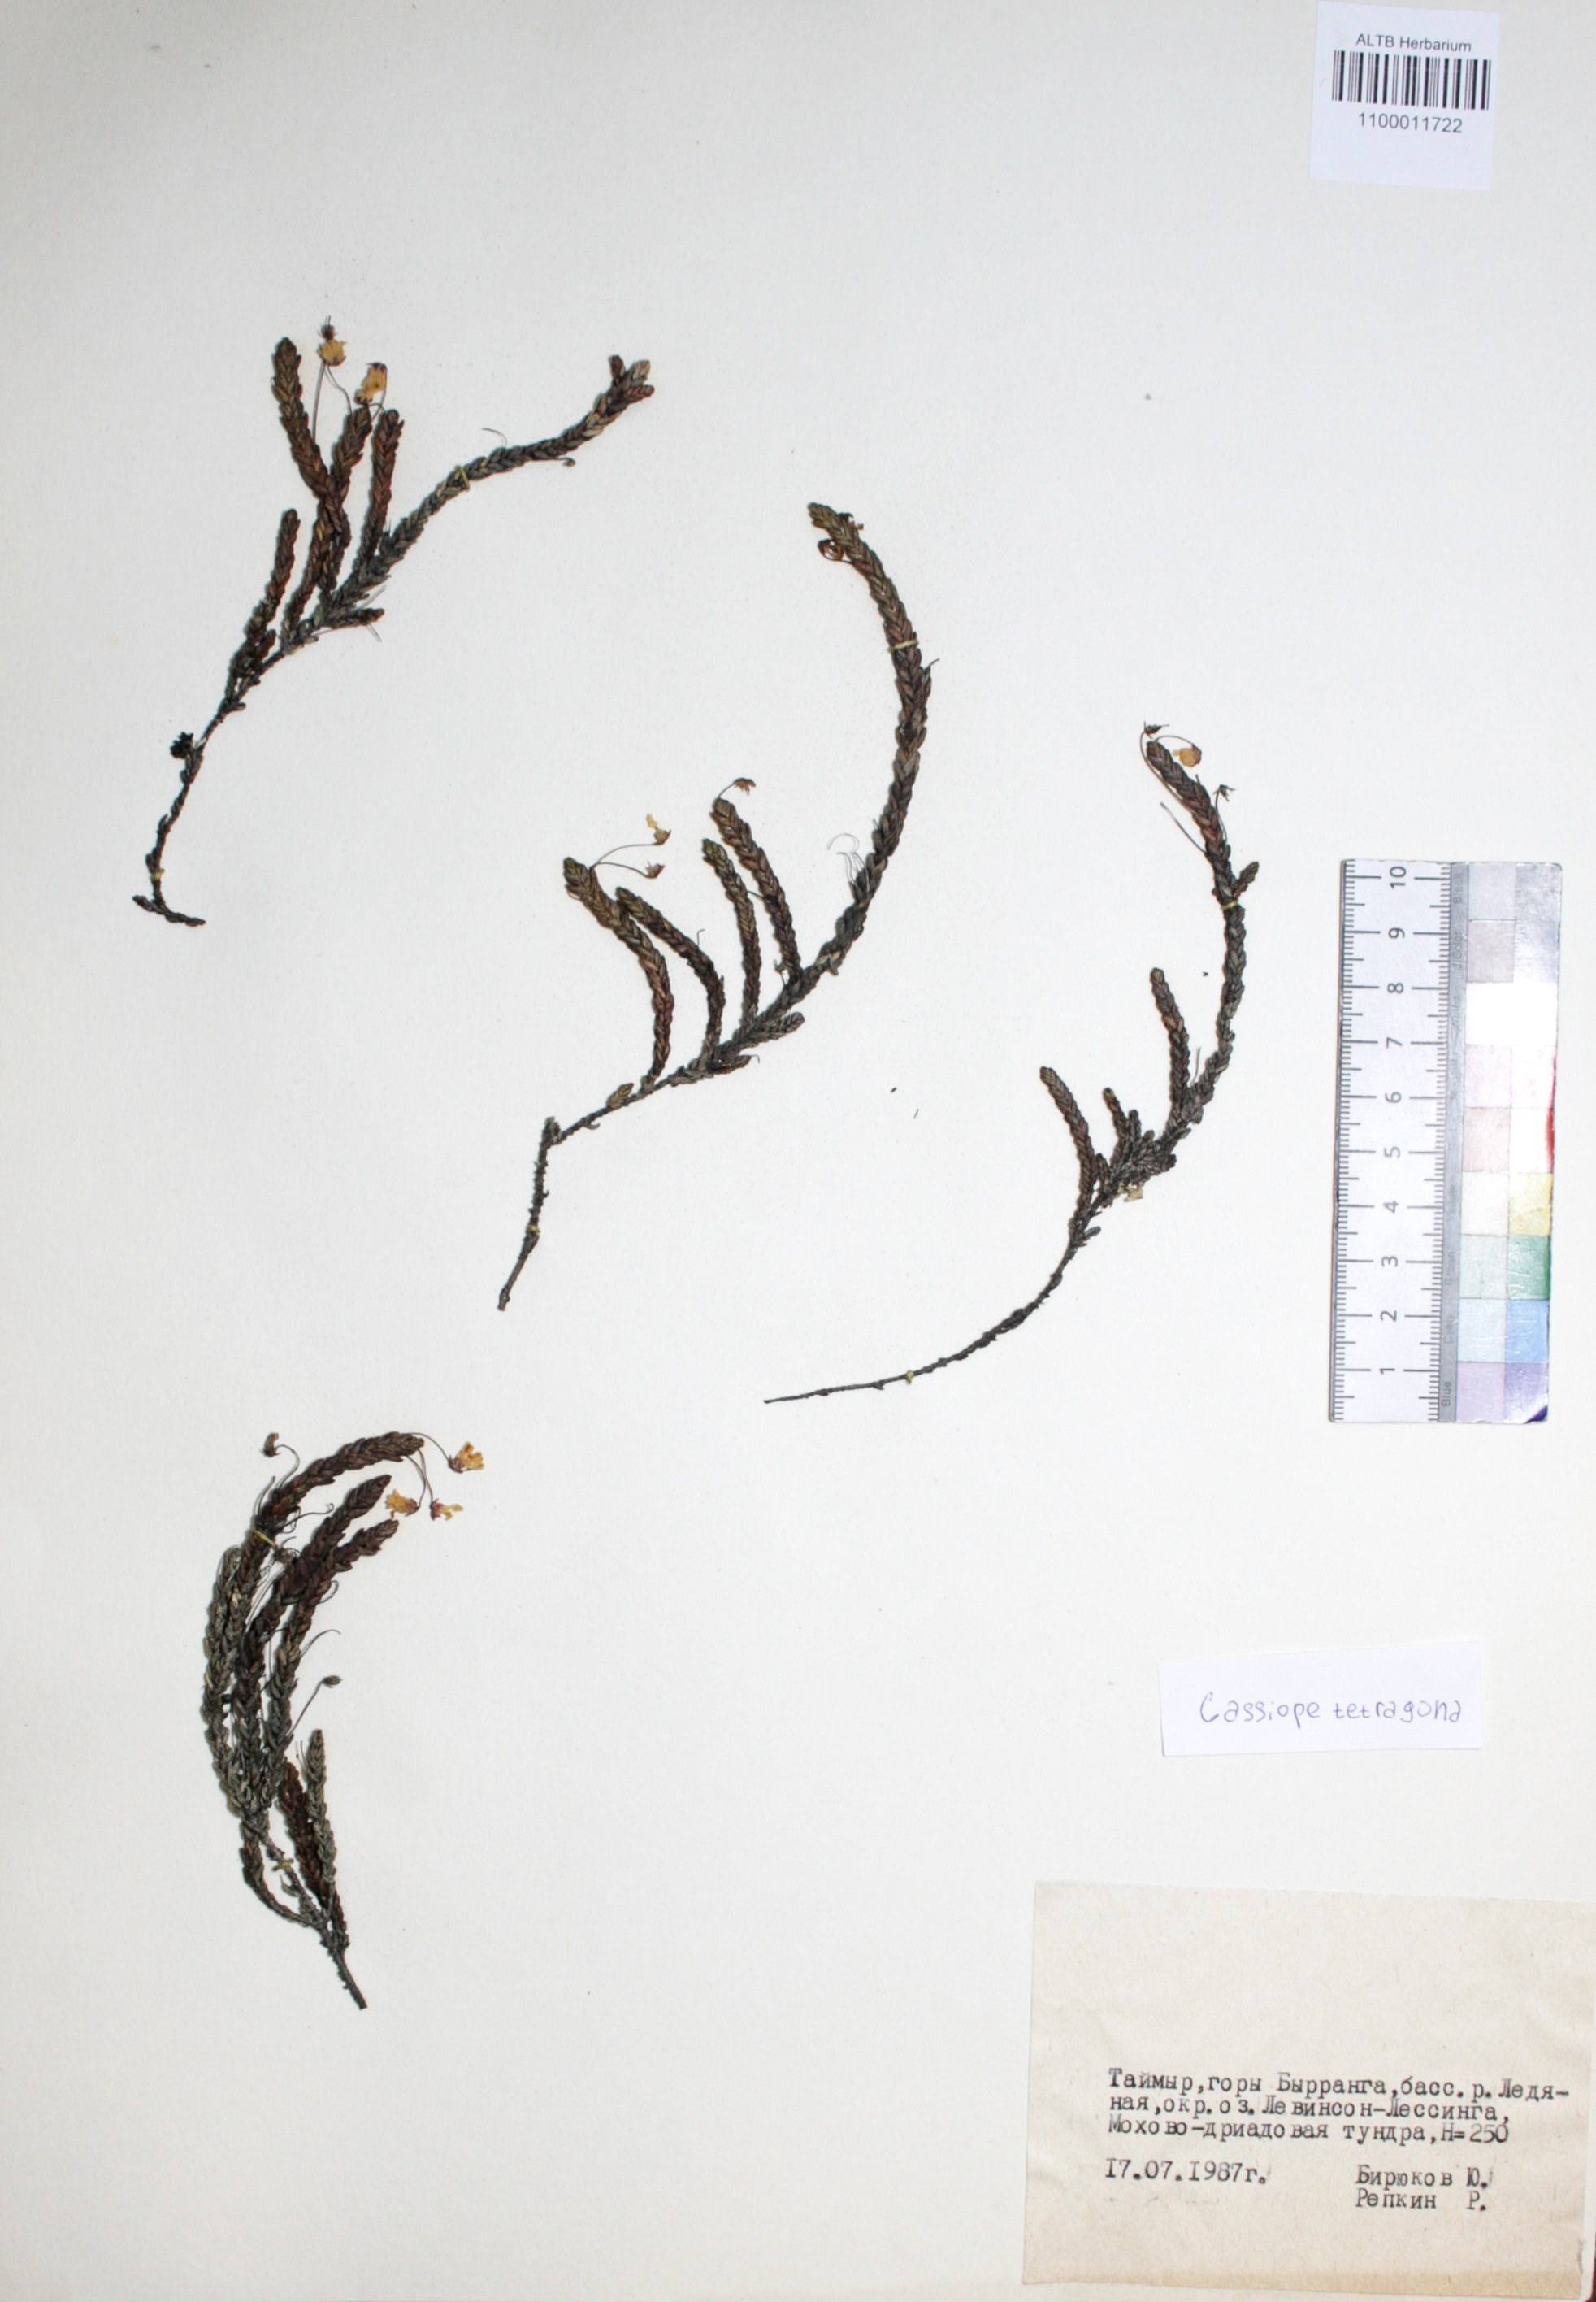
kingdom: Plantae
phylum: Tracheophyta
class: Magnoliopsida
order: Ericales
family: Ericaceae
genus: Cassiope
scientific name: Cassiope tetragona
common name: Arctic bell heather
